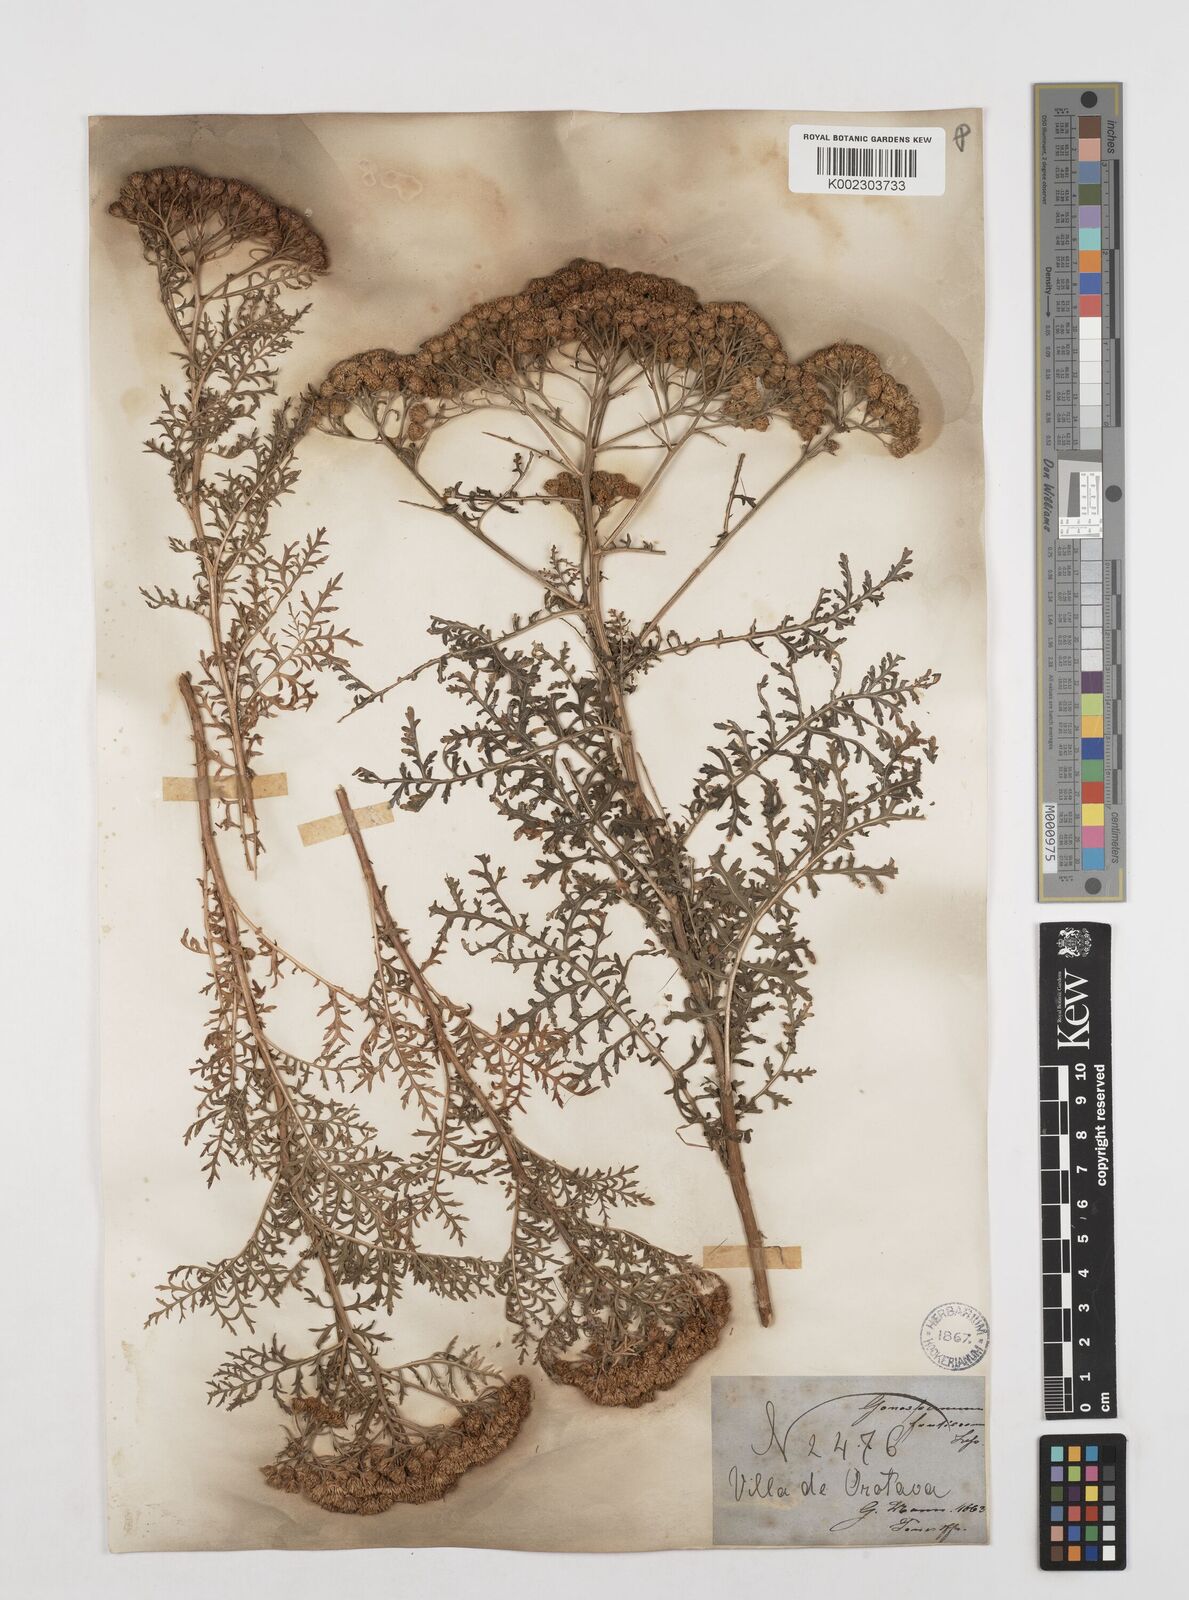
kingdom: Plantae
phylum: Tracheophyta
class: Magnoliopsida
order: Asterales
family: Asteraceae
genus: Gonospermum
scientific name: Gonospermum fruticosum
